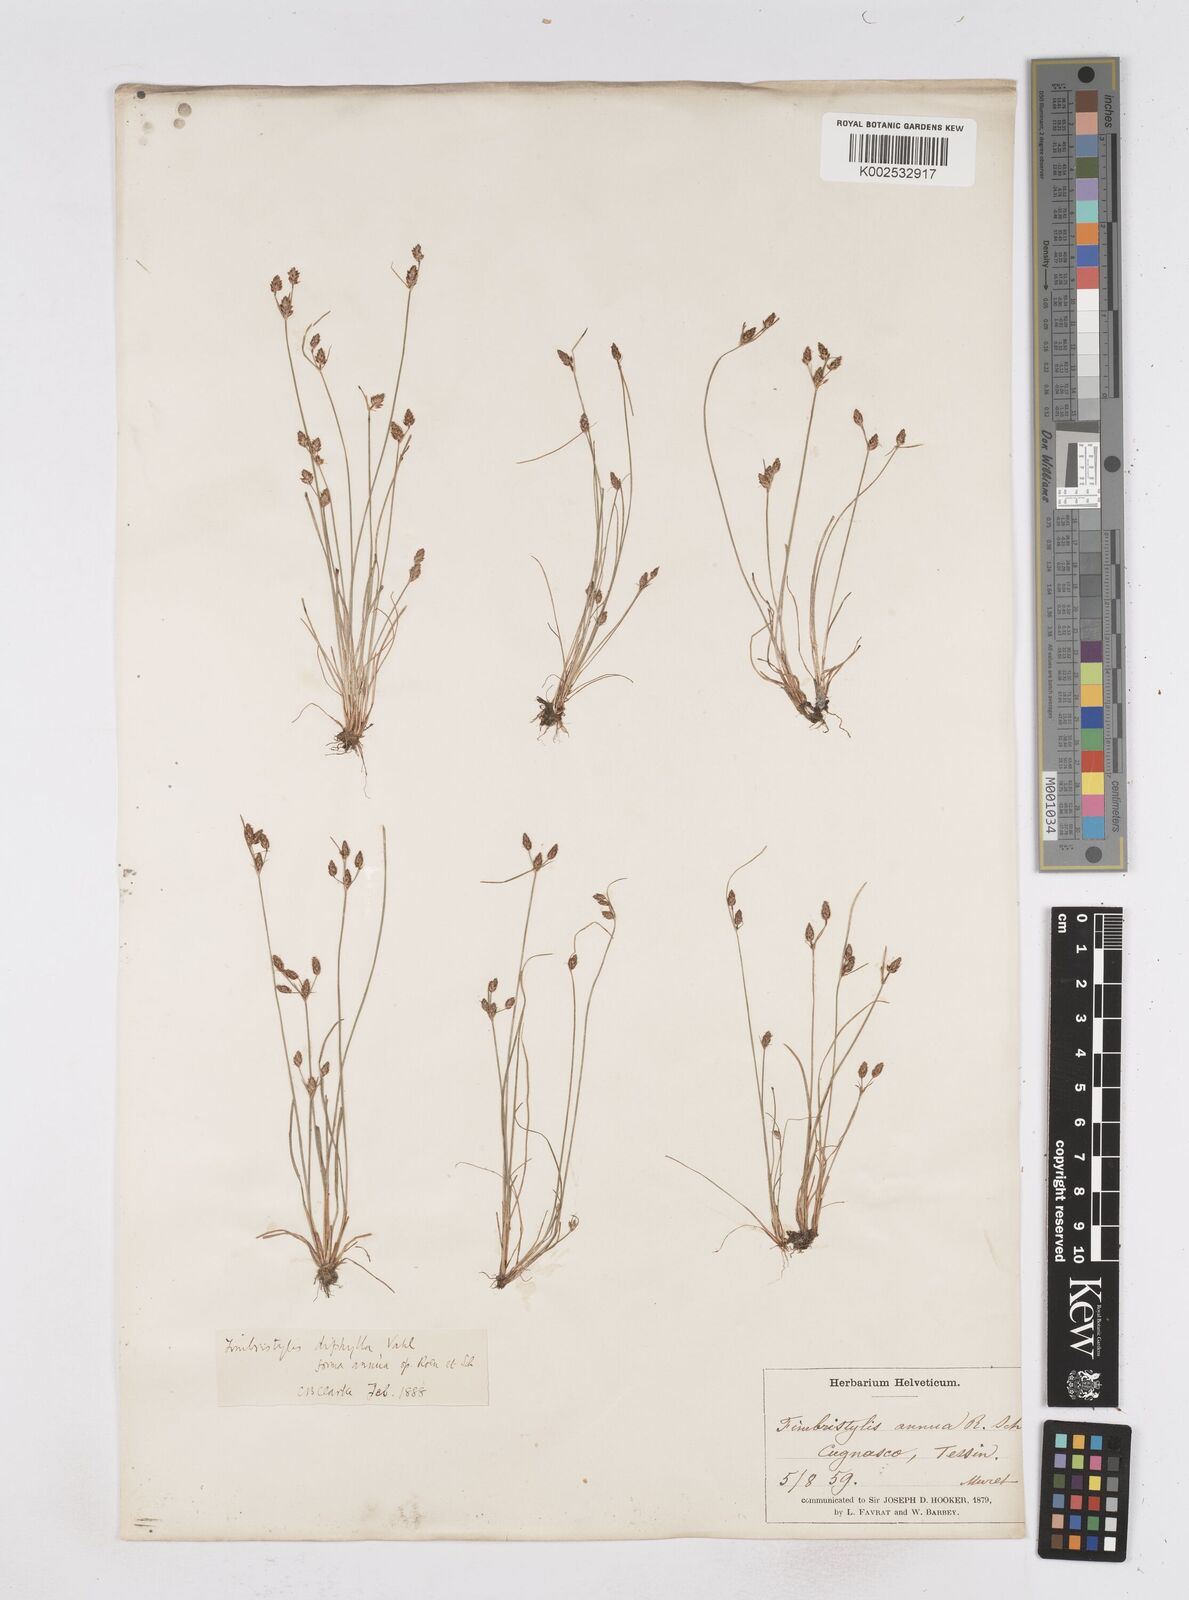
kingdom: Plantae
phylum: Tracheophyta
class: Liliopsida
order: Poales
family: Cyperaceae
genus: Fimbristylis
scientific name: Fimbristylis dichotoma
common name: Forked fimbry
